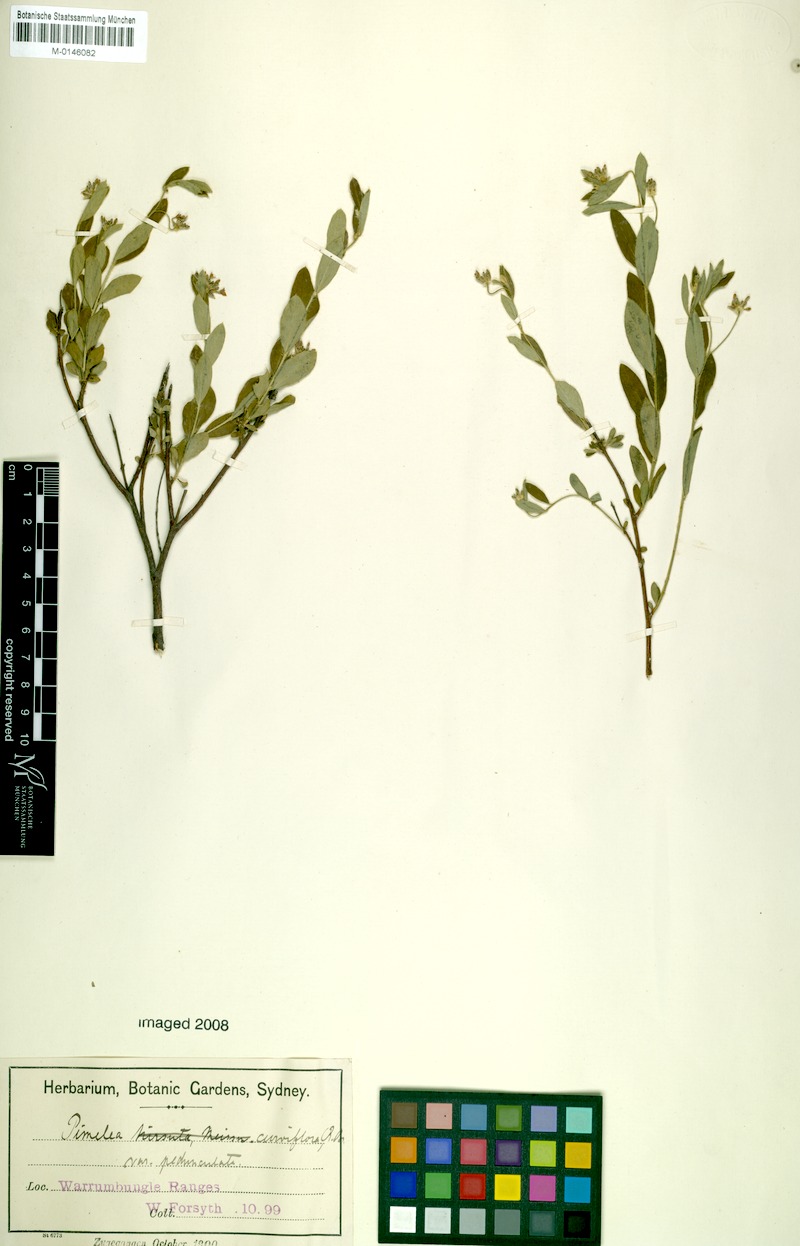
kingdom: Plantae
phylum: Tracheophyta
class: Magnoliopsida
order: Malvales
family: Thymelaeaceae
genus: Pimelea
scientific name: Pimelea curviflora
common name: Curved riceflower
